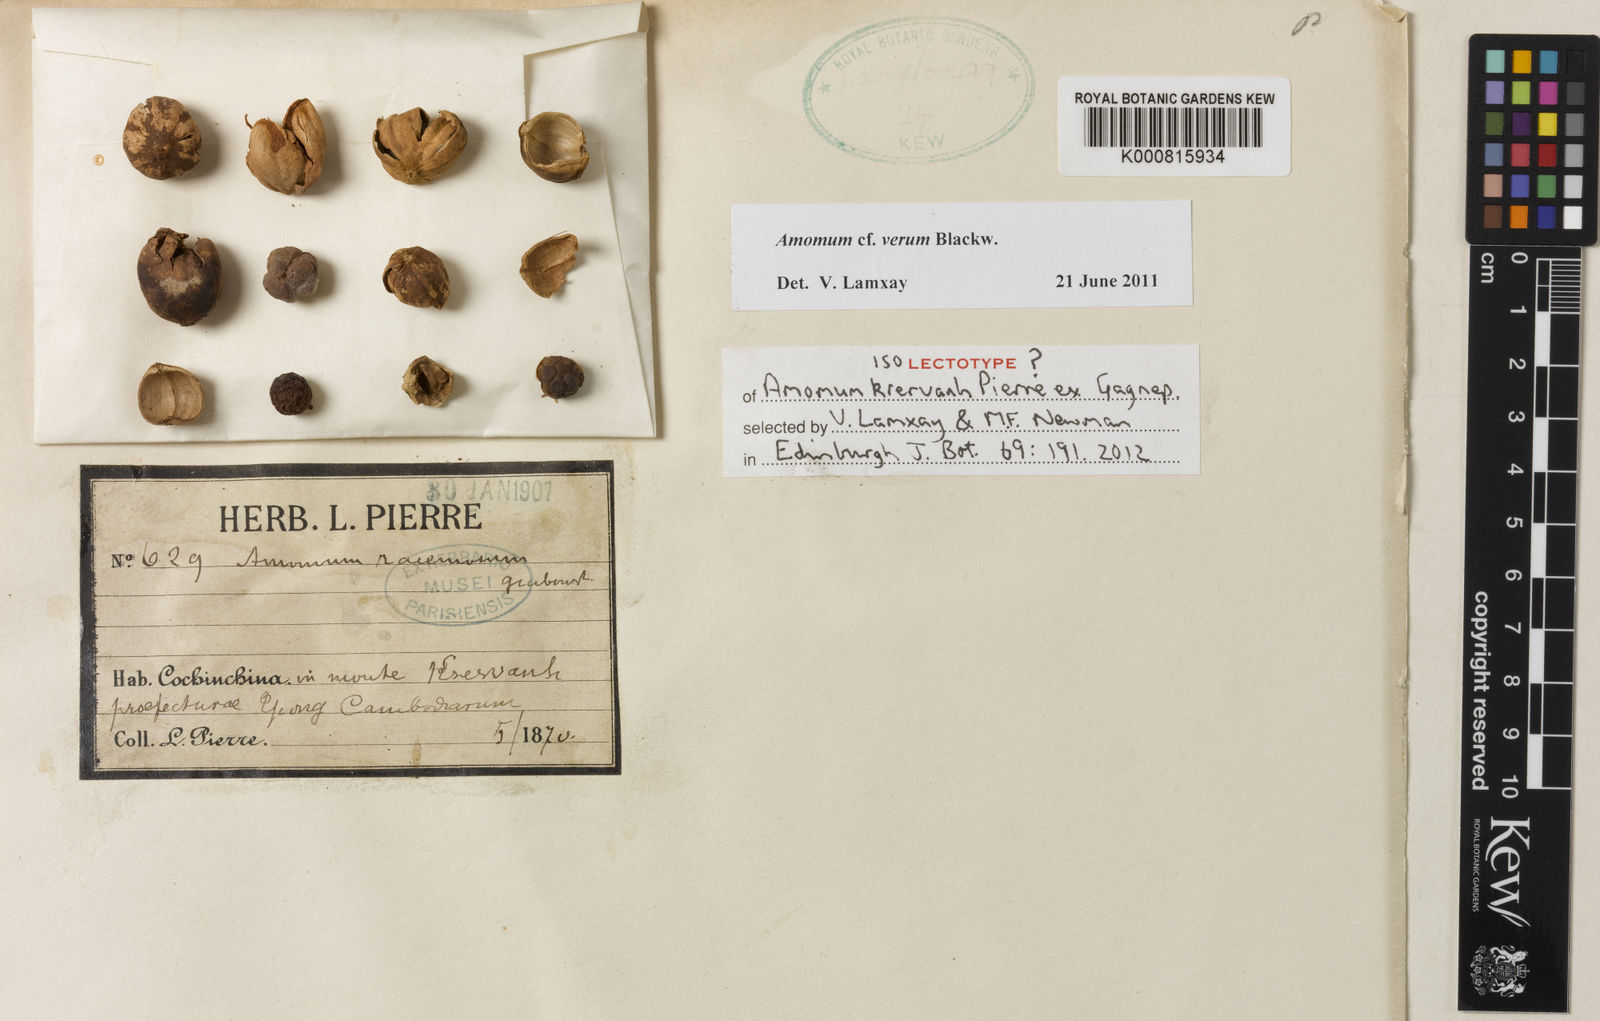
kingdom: Plantae
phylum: Tracheophyta
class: Liliopsida
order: Zingiberales
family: Zingiberaceae
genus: Wurfbainia
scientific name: Wurfbainia vera
